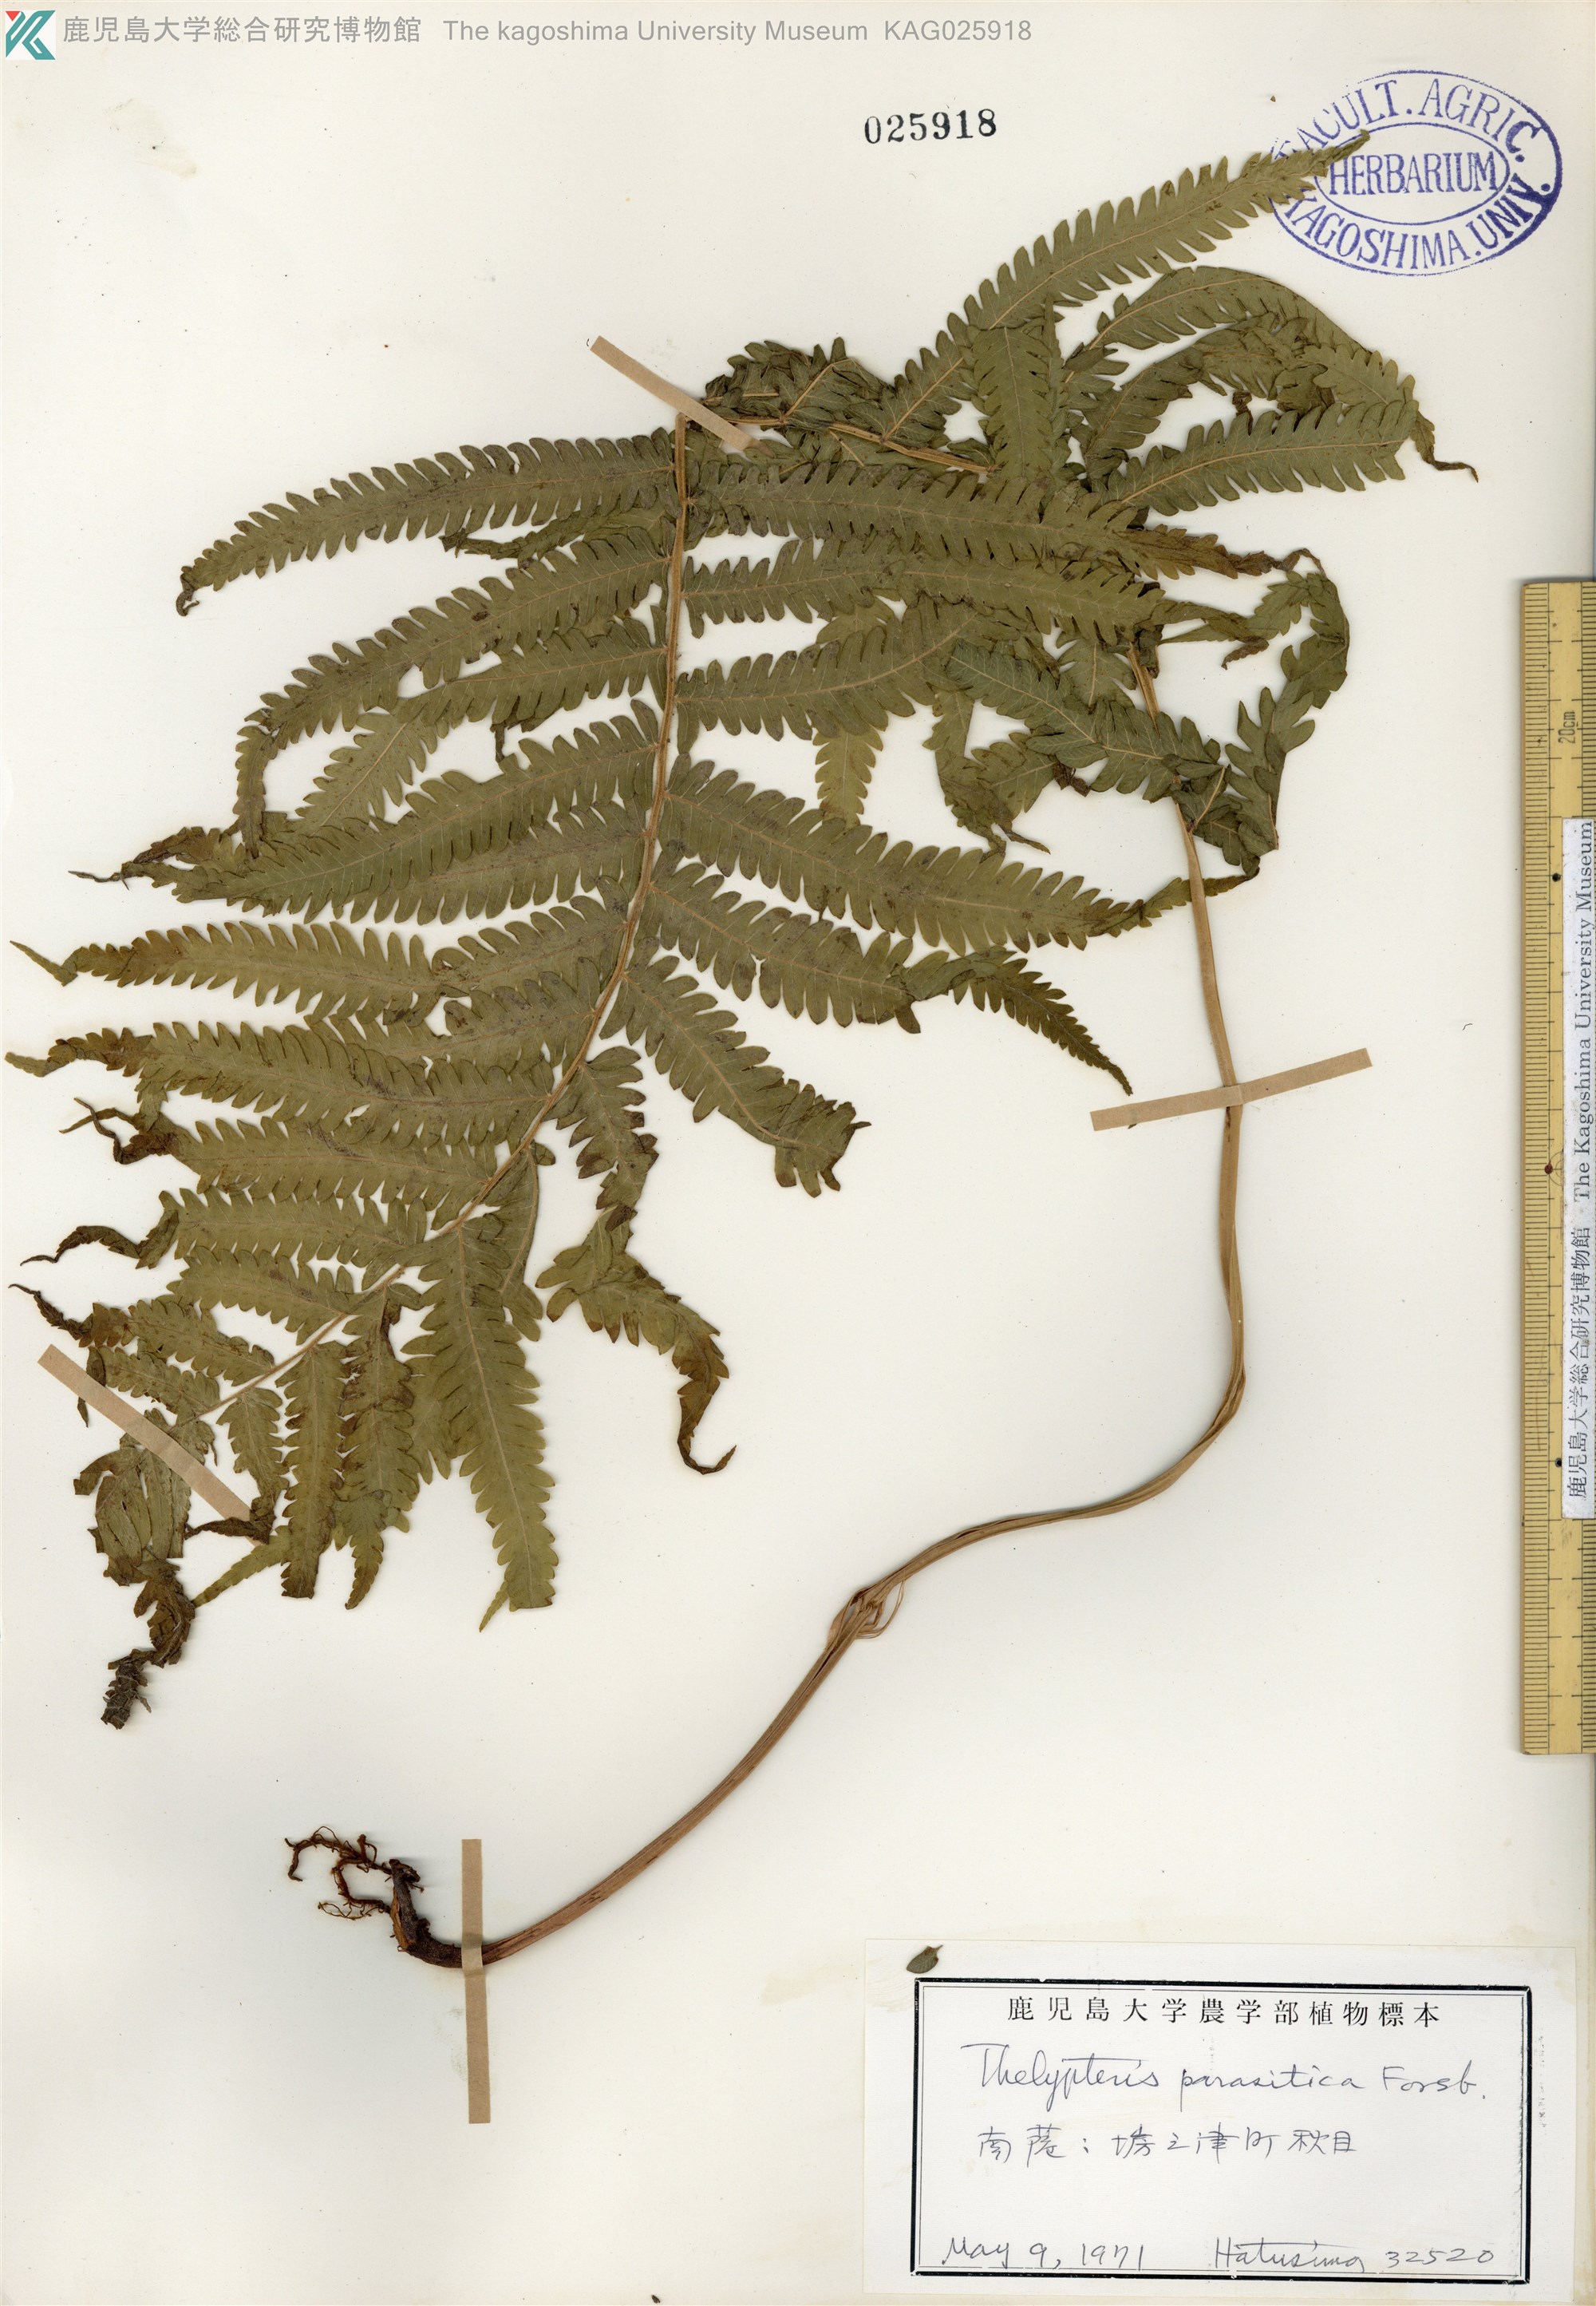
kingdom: Plantae
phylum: Tracheophyta
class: Polypodiopsida
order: Polypodiales
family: Thelypteridaceae
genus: Christella
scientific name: Christella parasitica
